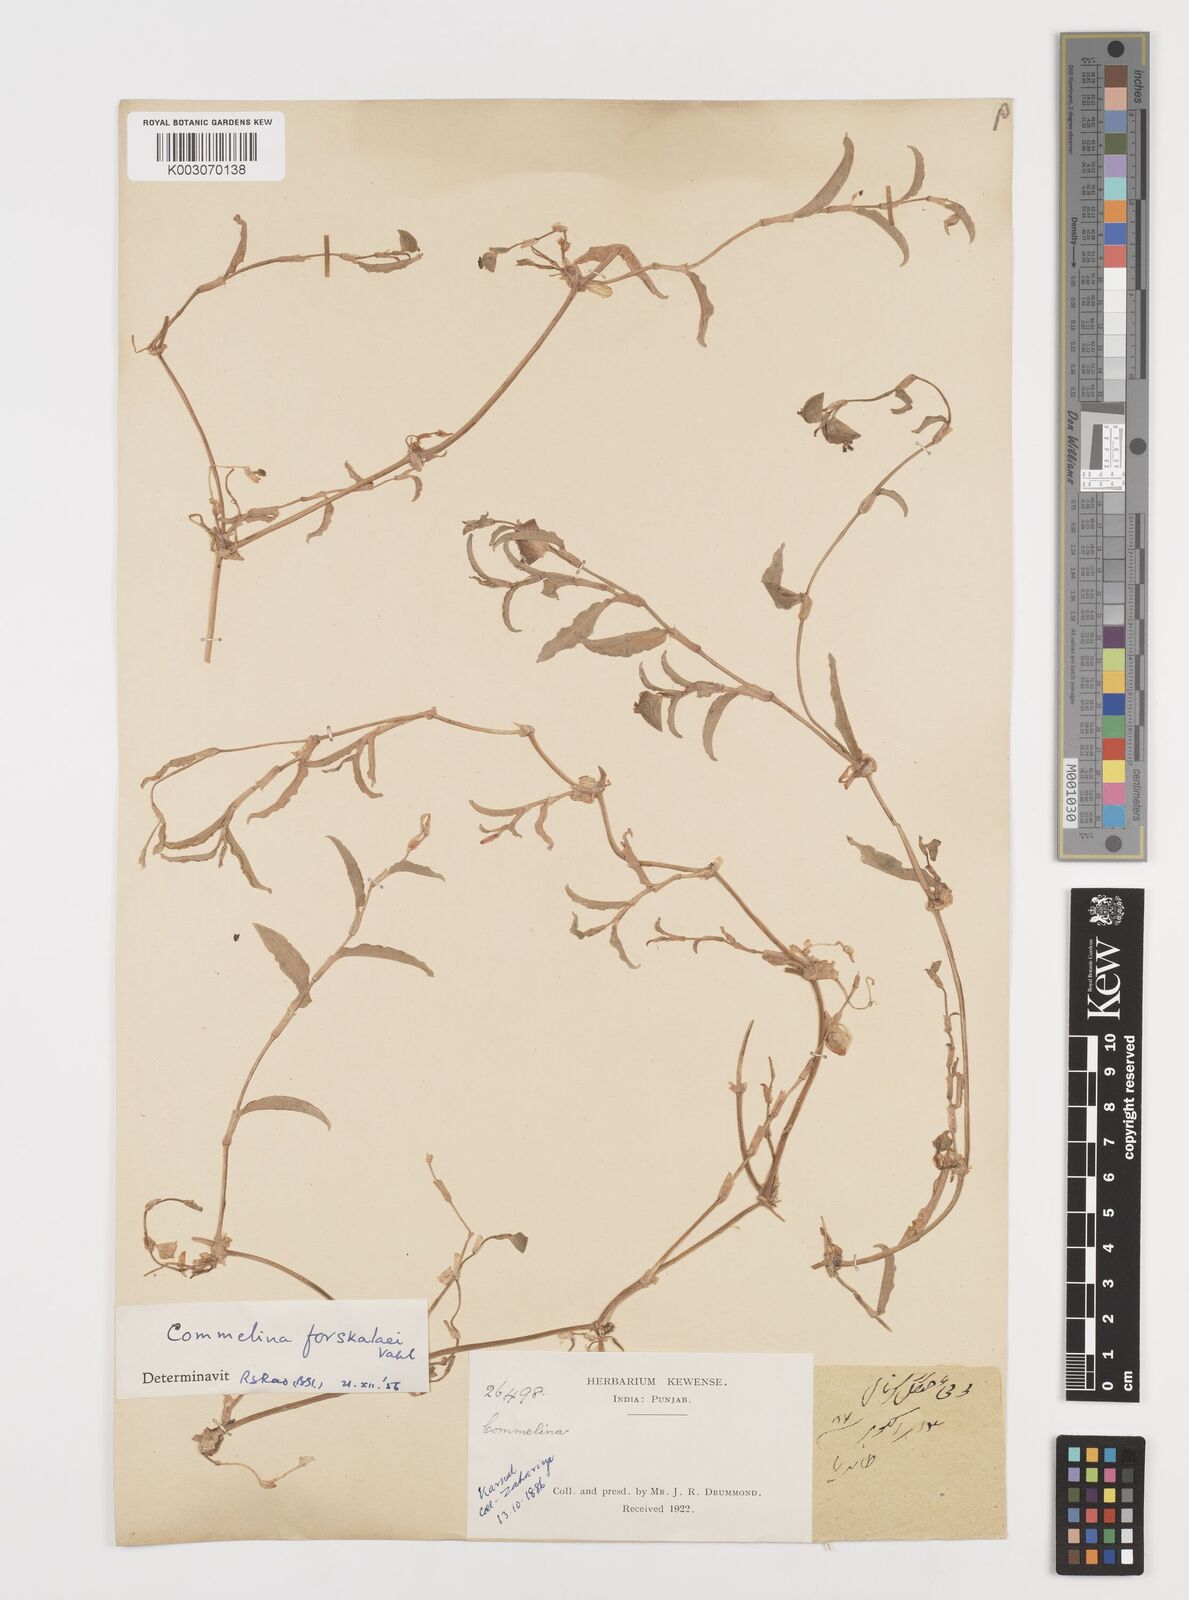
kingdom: Plantae
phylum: Tracheophyta
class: Liliopsida
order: Commelinales
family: Commelinaceae
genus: Commelina
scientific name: Commelina forskaolii
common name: Rat's ear
